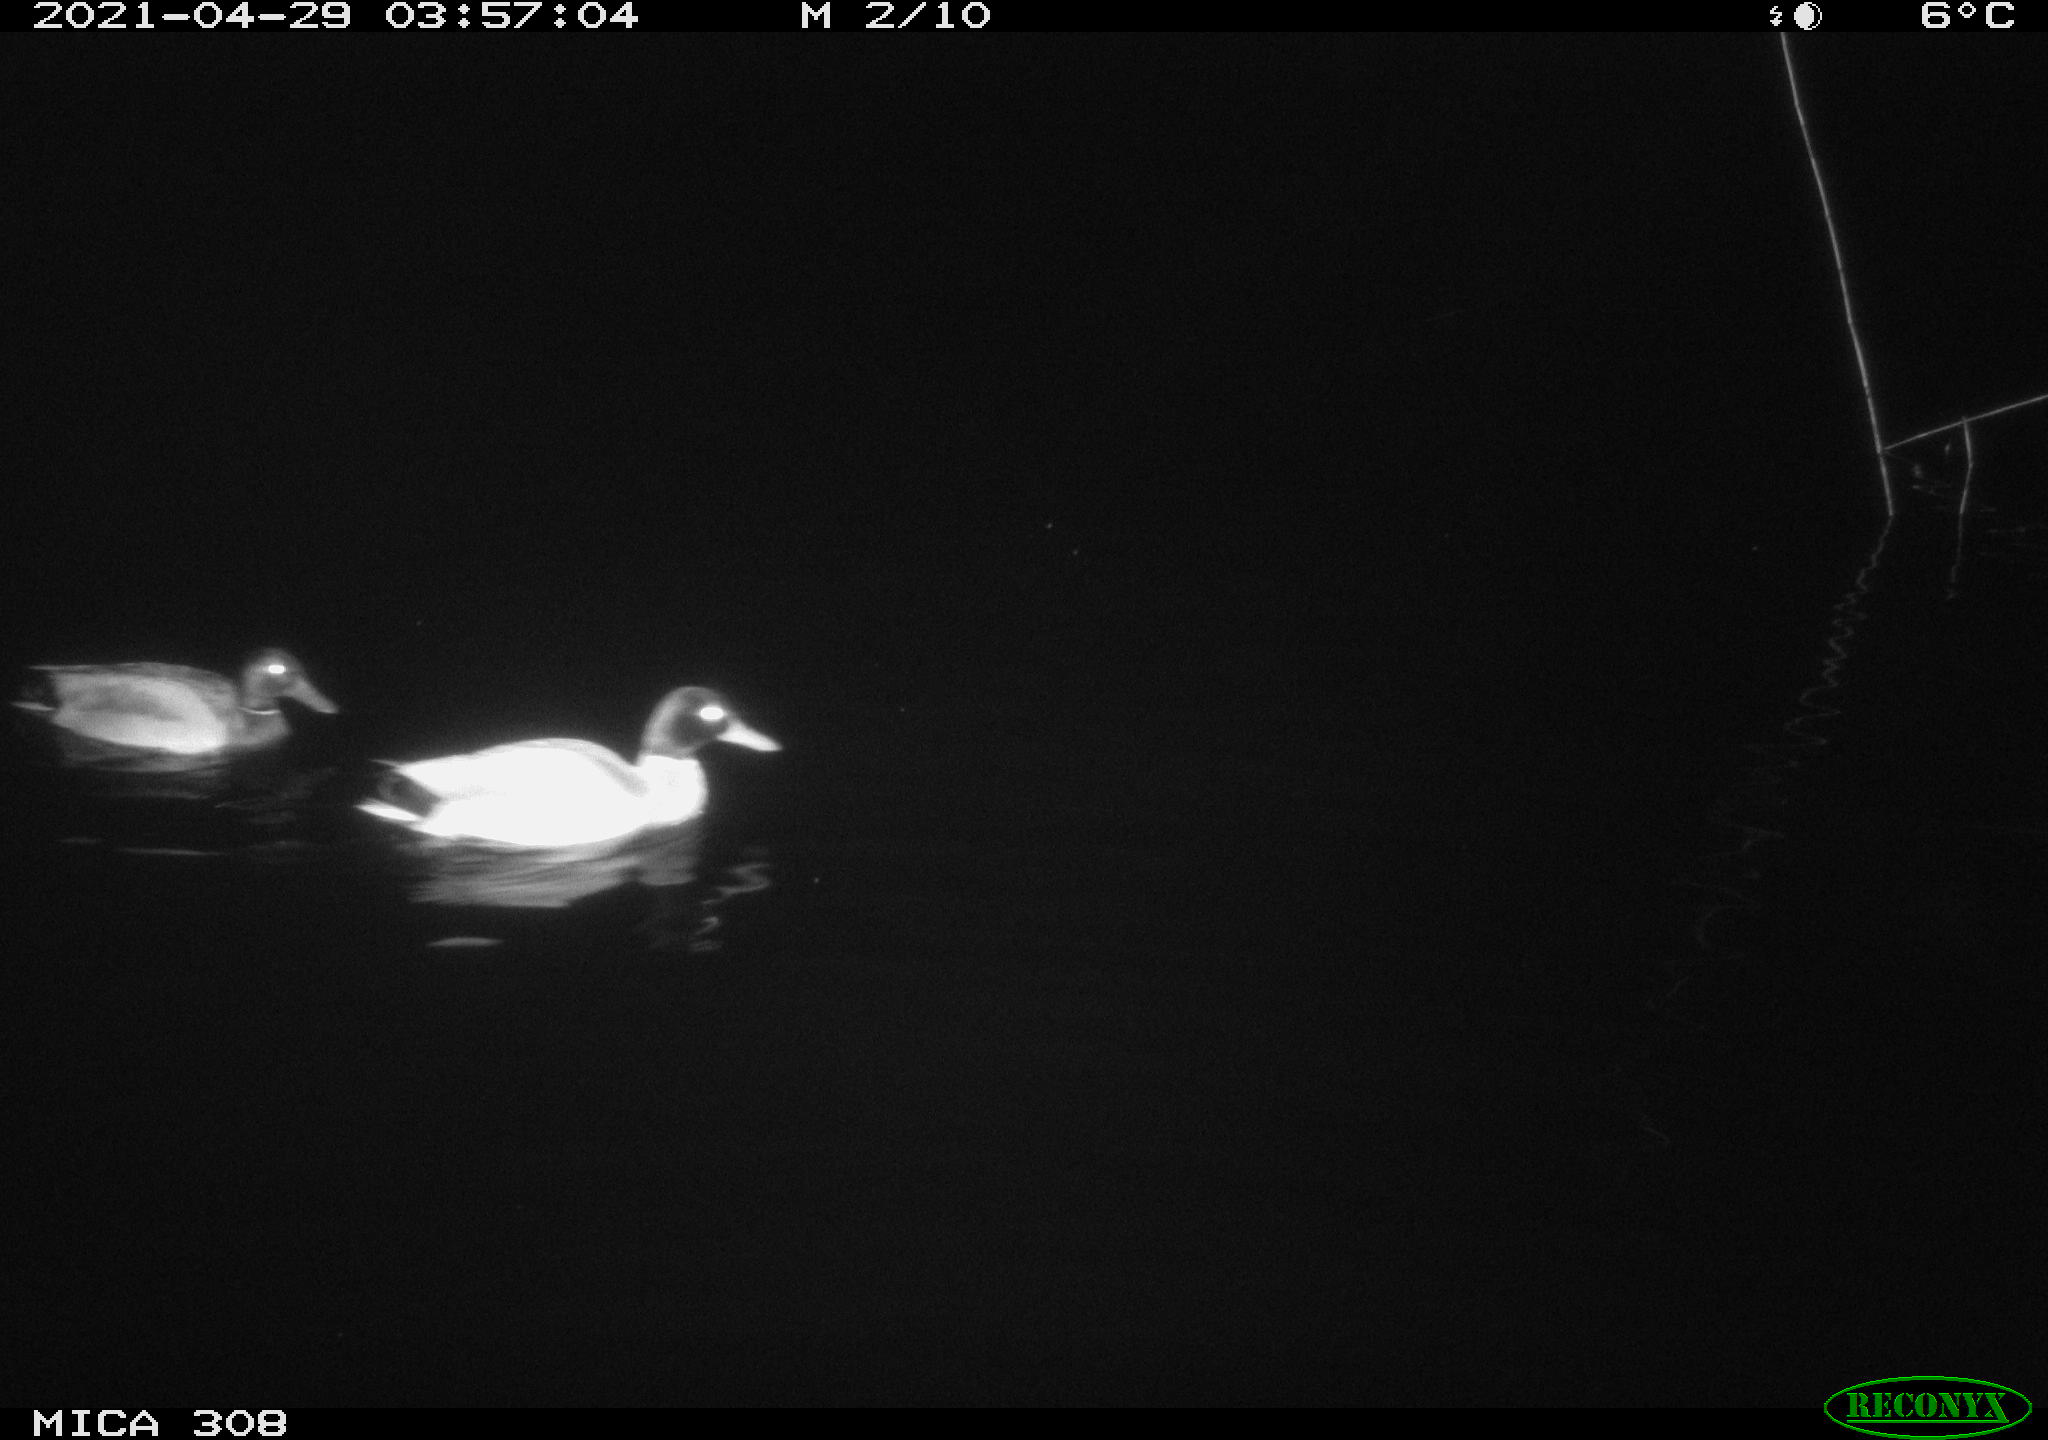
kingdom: Animalia
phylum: Chordata
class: Aves
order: Anseriformes
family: Anatidae
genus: Anas
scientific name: Anas platyrhynchos
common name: Mallard
